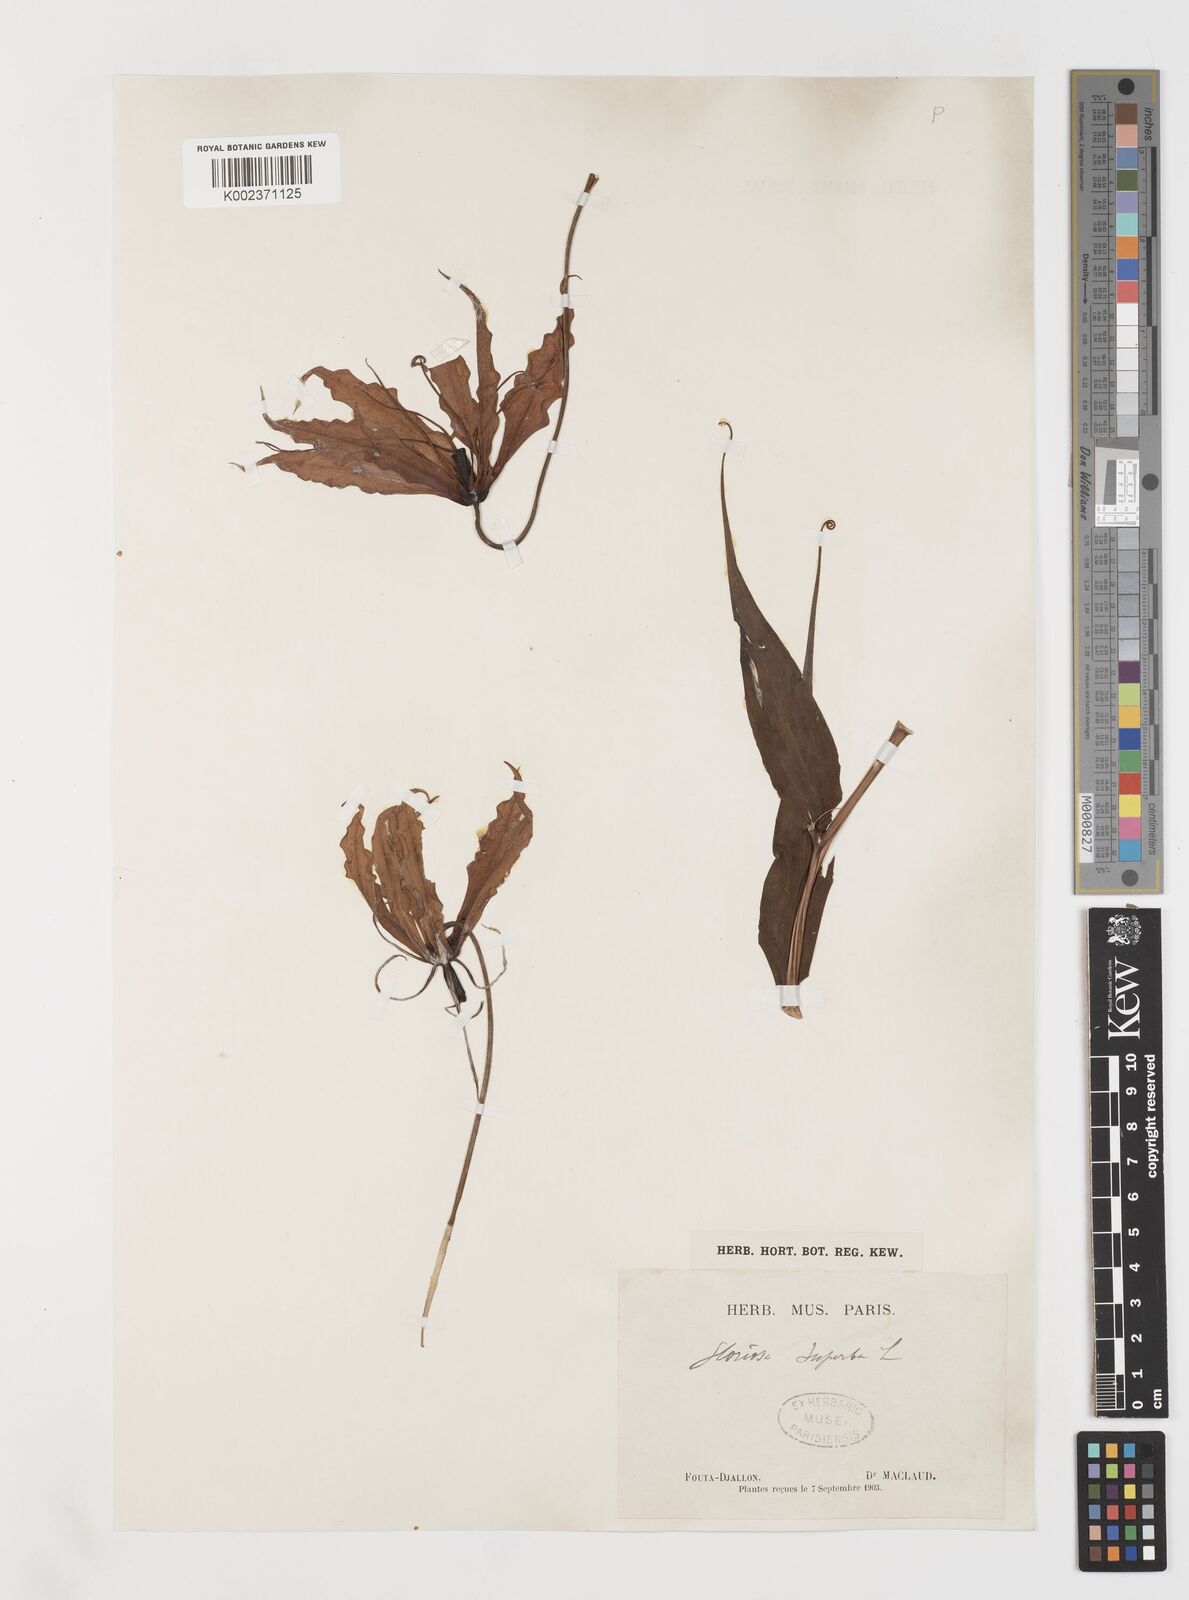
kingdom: Plantae
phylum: Tracheophyta
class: Liliopsida
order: Liliales
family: Colchicaceae
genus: Gloriosa
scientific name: Gloriosa simplex
